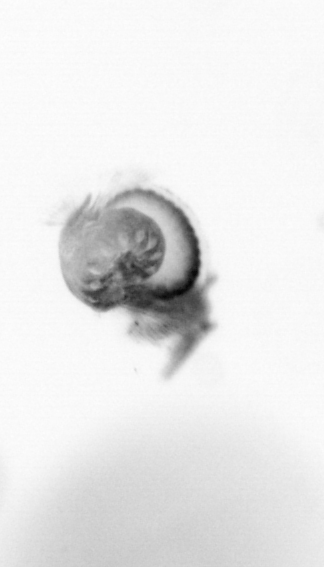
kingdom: Animalia
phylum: Annelida
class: Polychaeta
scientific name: Polychaeta
